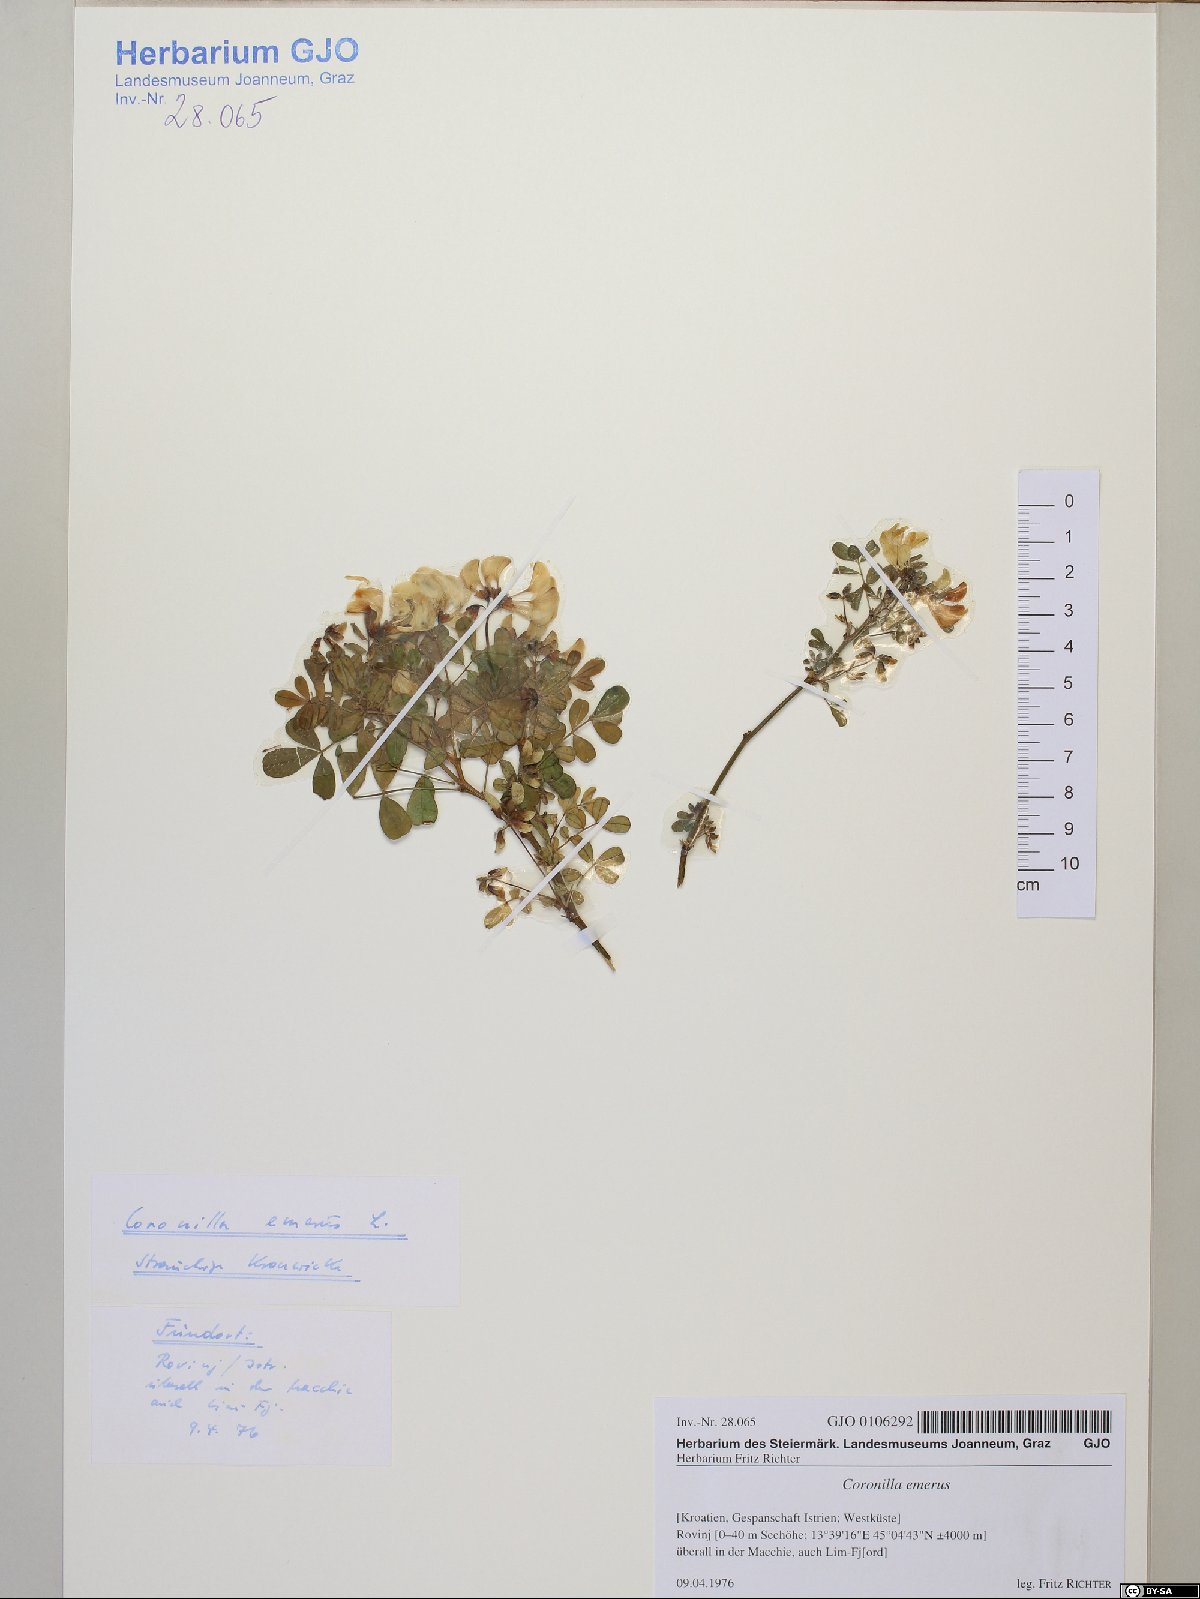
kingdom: Plantae
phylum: Tracheophyta
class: Magnoliopsida
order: Fabales
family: Fabaceae
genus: Hippocrepis
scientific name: Hippocrepis emerus
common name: Scorpion senna
